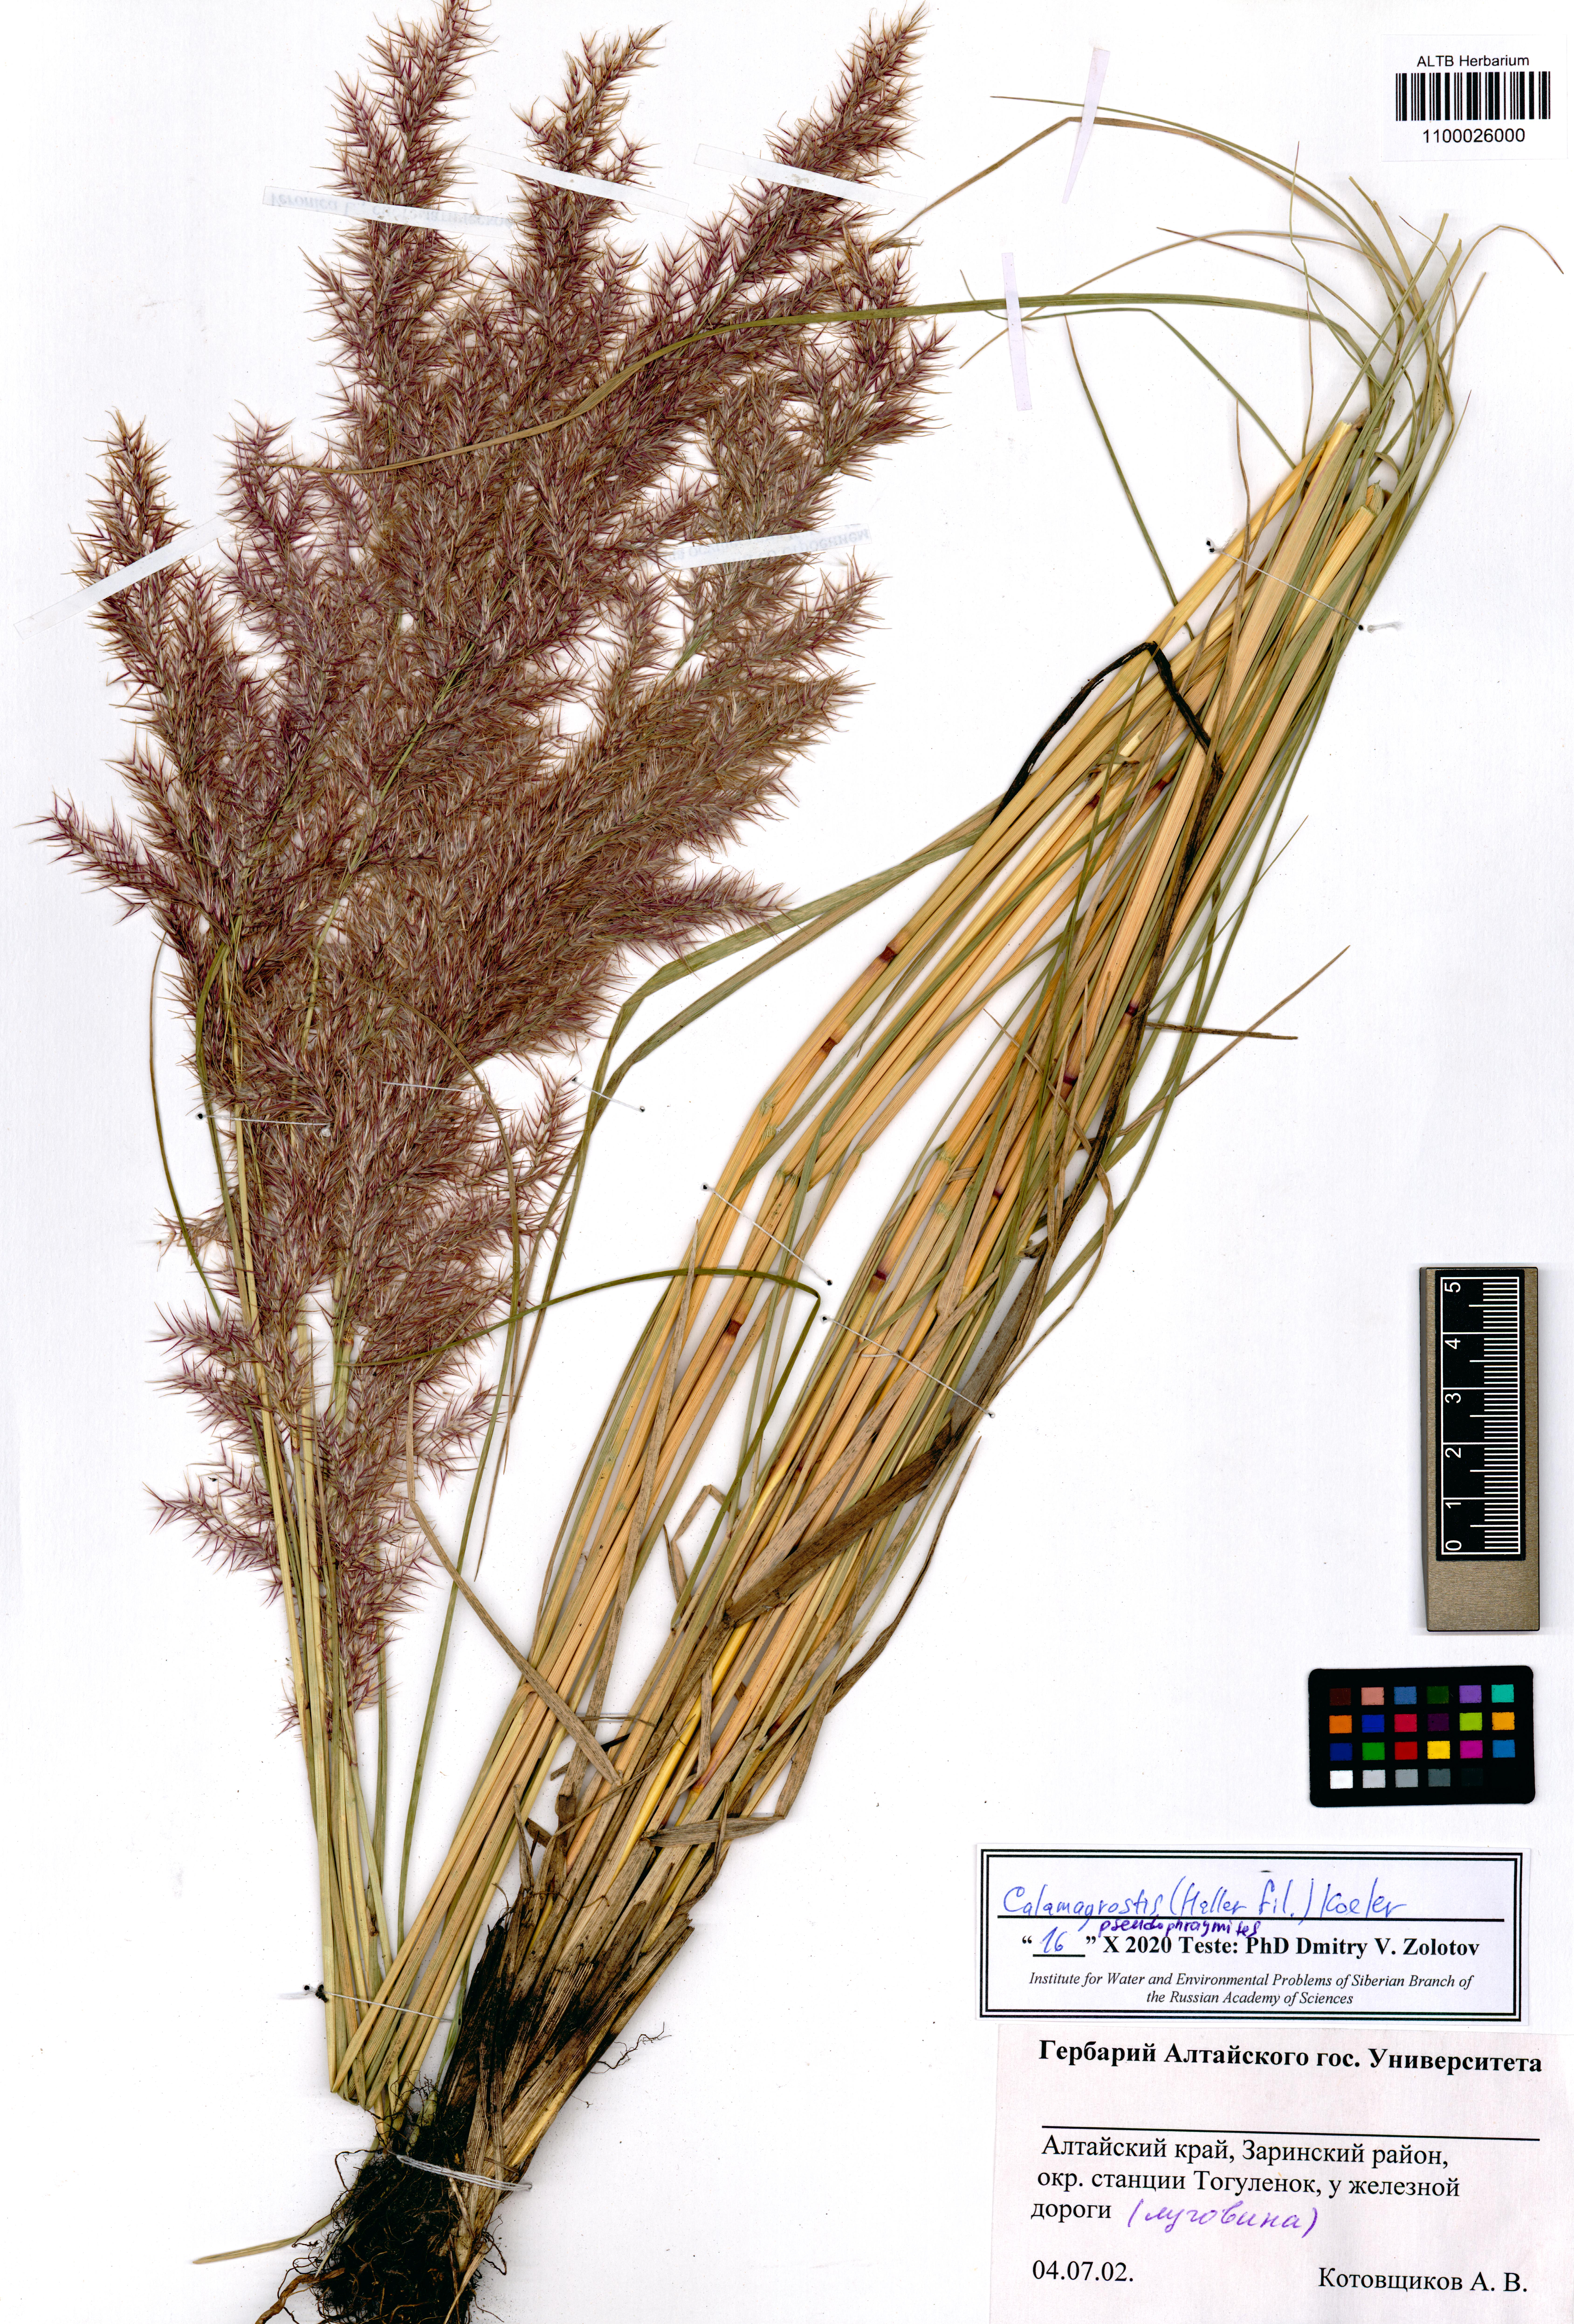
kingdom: Plantae
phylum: Tracheophyta
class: Liliopsida
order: Poales
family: Poaceae
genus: Calamagrostis
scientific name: Calamagrostis pseudophragmites
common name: Coastal small-reed
